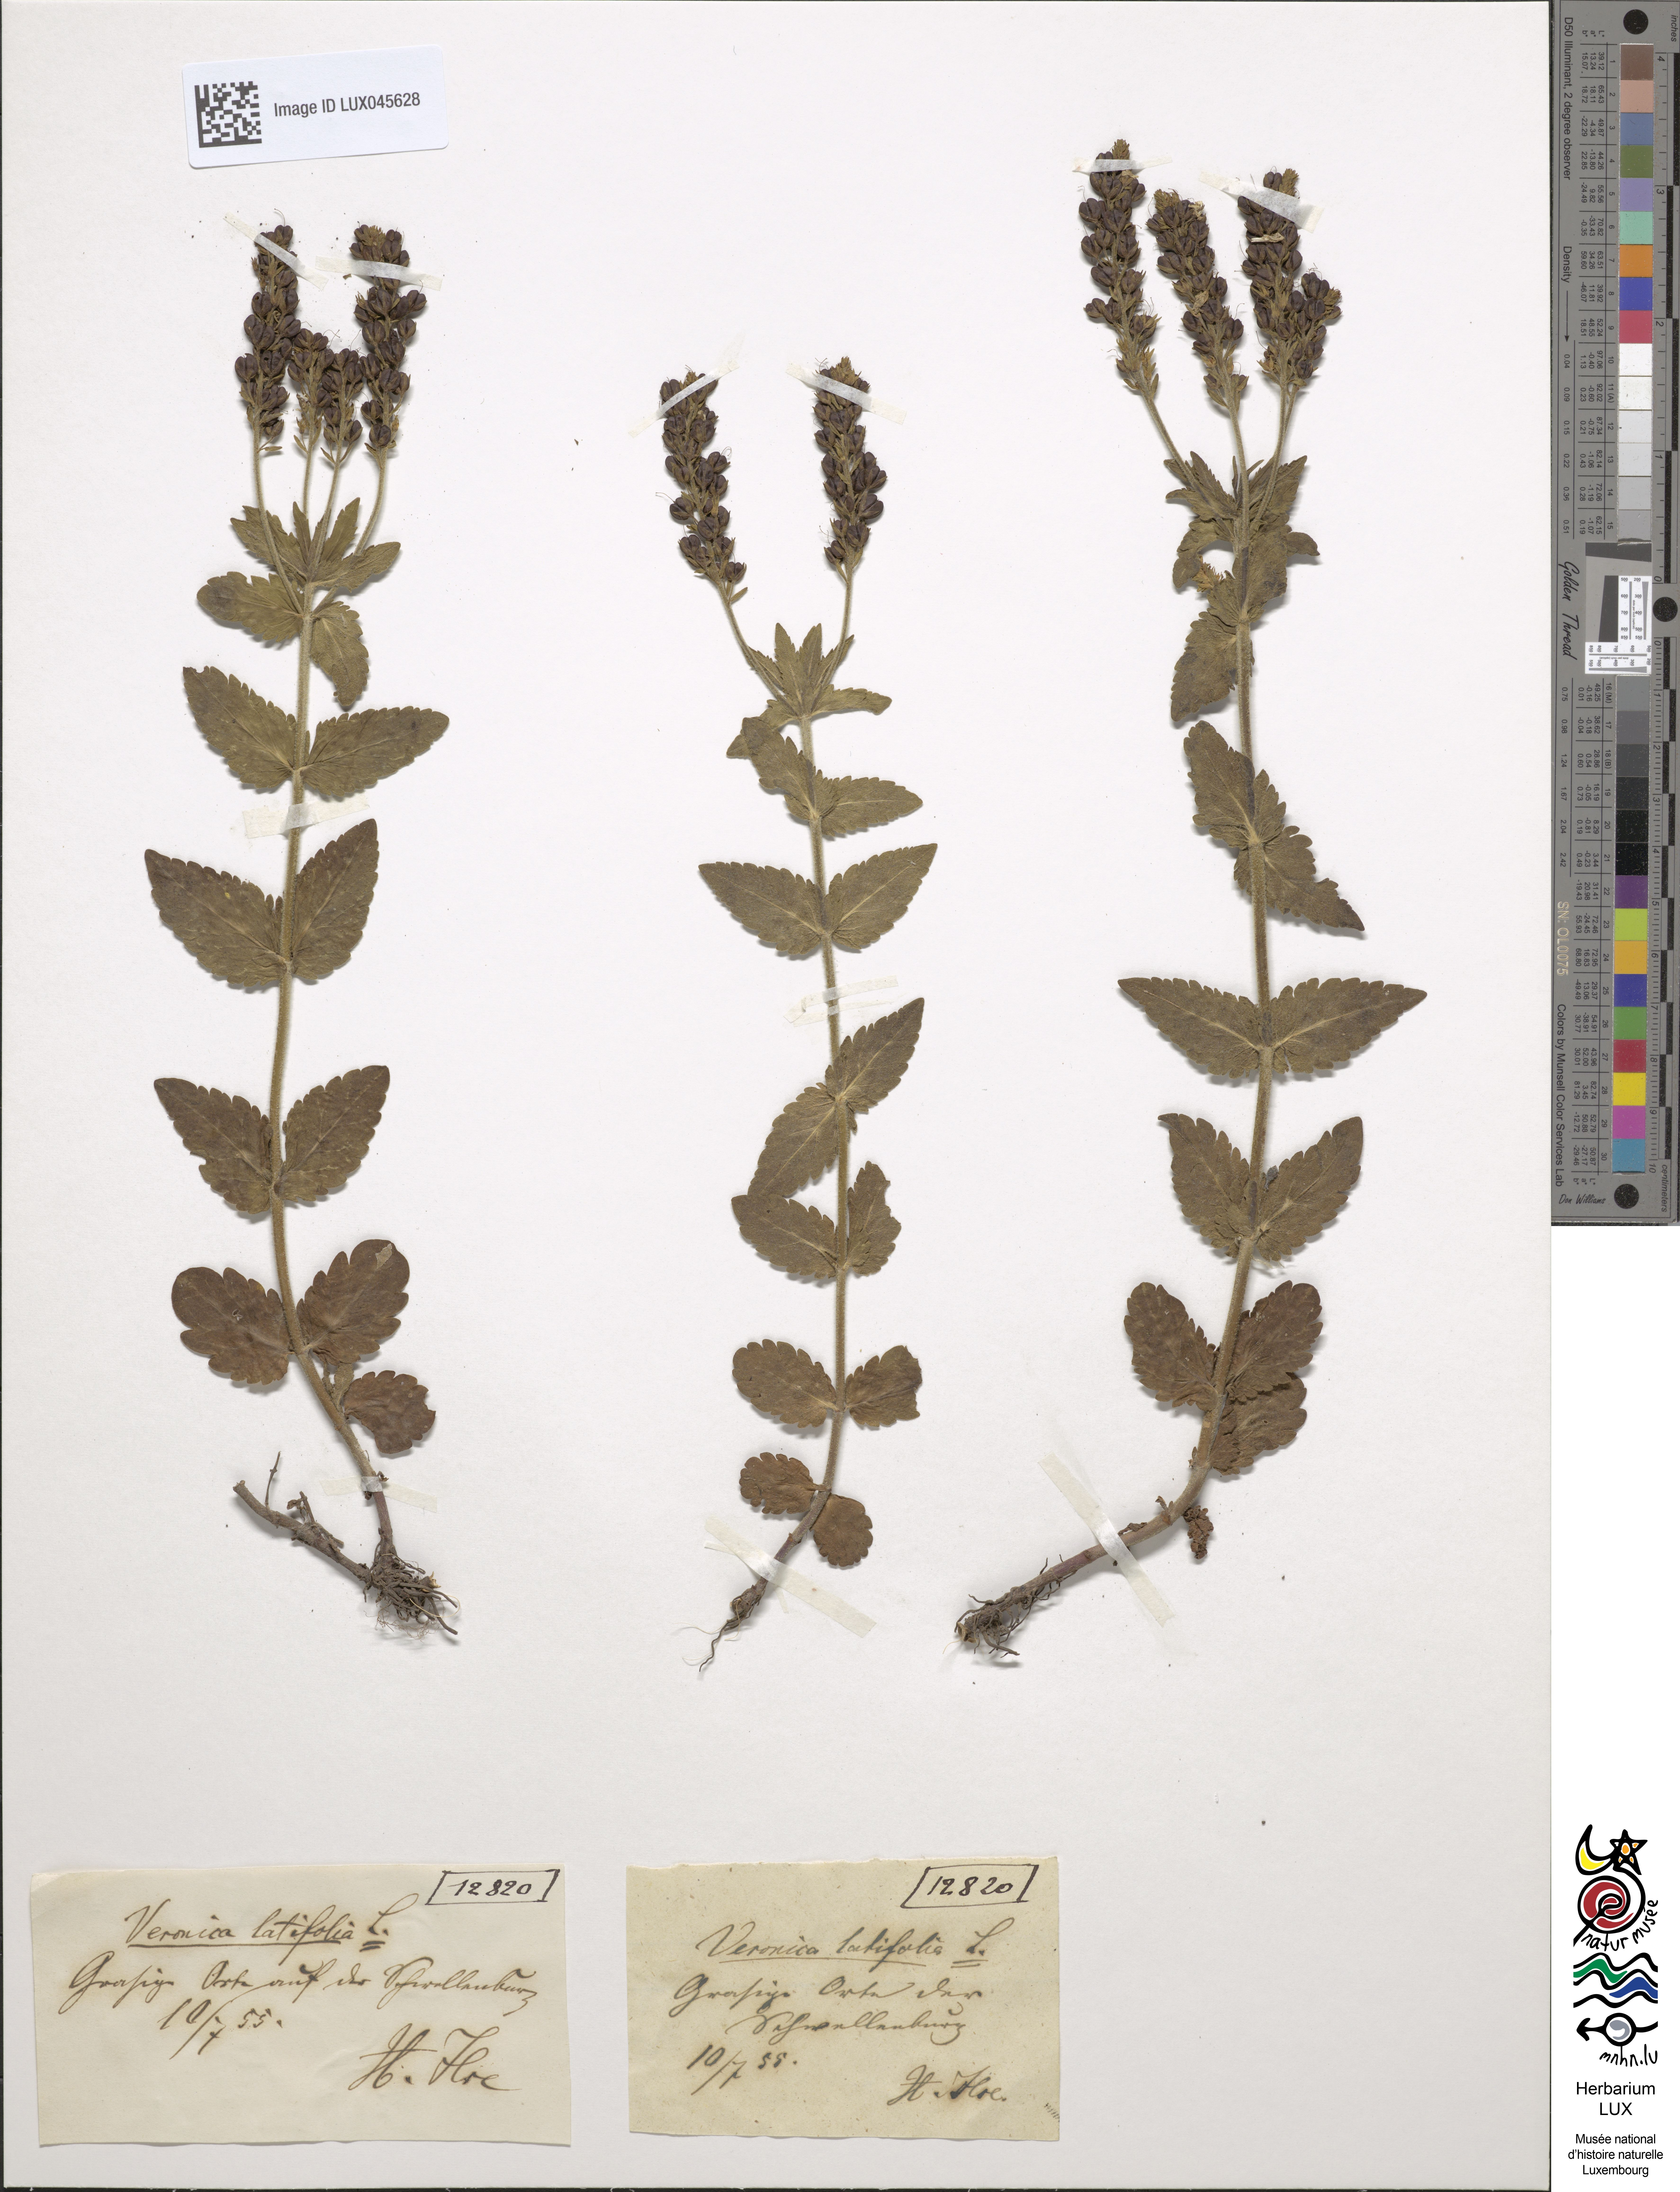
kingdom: Plantae
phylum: Tracheophyta
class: Magnoliopsida
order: Lamiales
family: Plantaginaceae
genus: Veronica
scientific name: Veronica urticifolia
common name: Nettle-leaf speedwell
